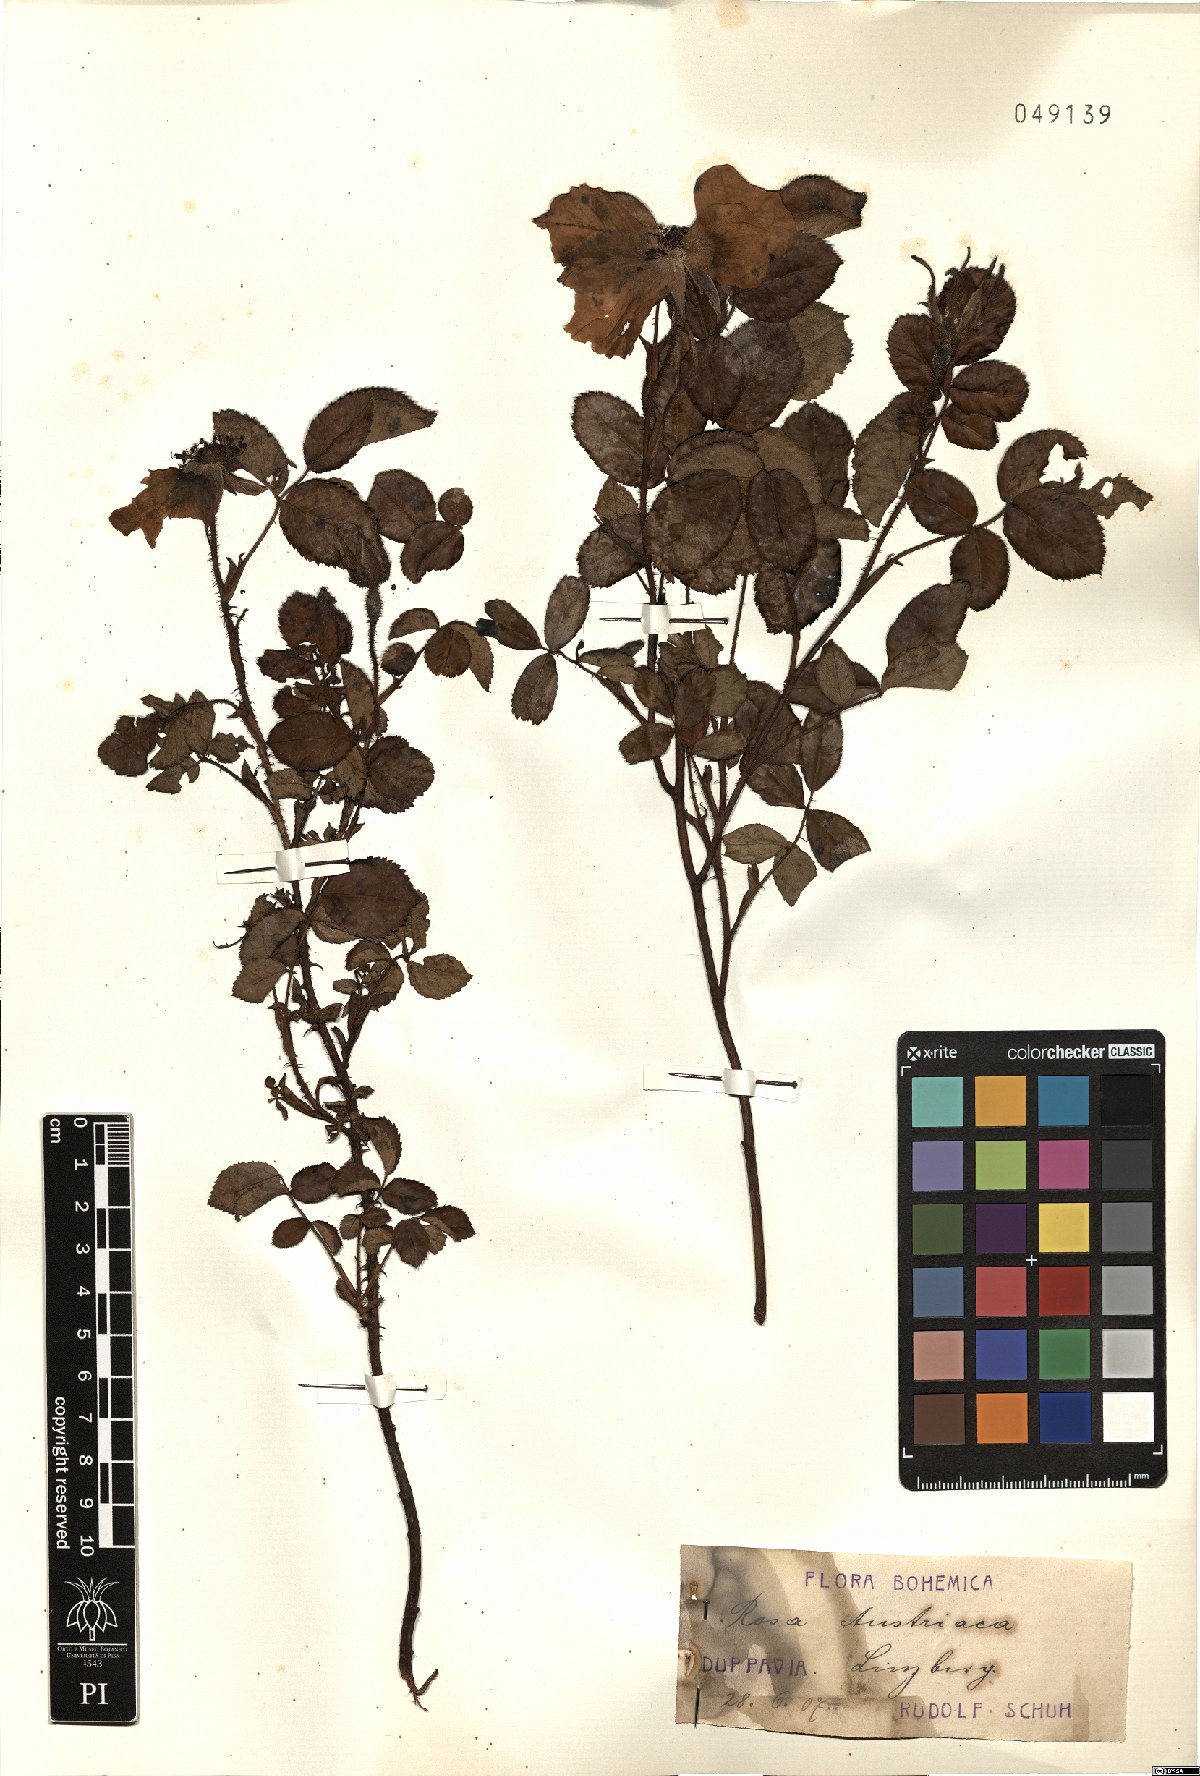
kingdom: Plantae
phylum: Tracheophyta
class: Magnoliopsida
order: Rosales
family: Rosaceae
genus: Rosa
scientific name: Rosa gallica
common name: French rose
